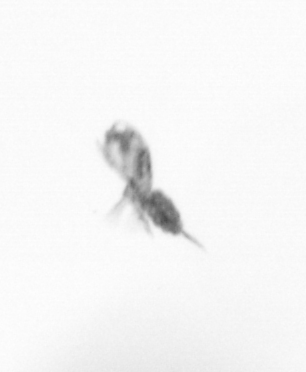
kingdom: Animalia
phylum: Arthropoda
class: Copepoda
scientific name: Copepoda
